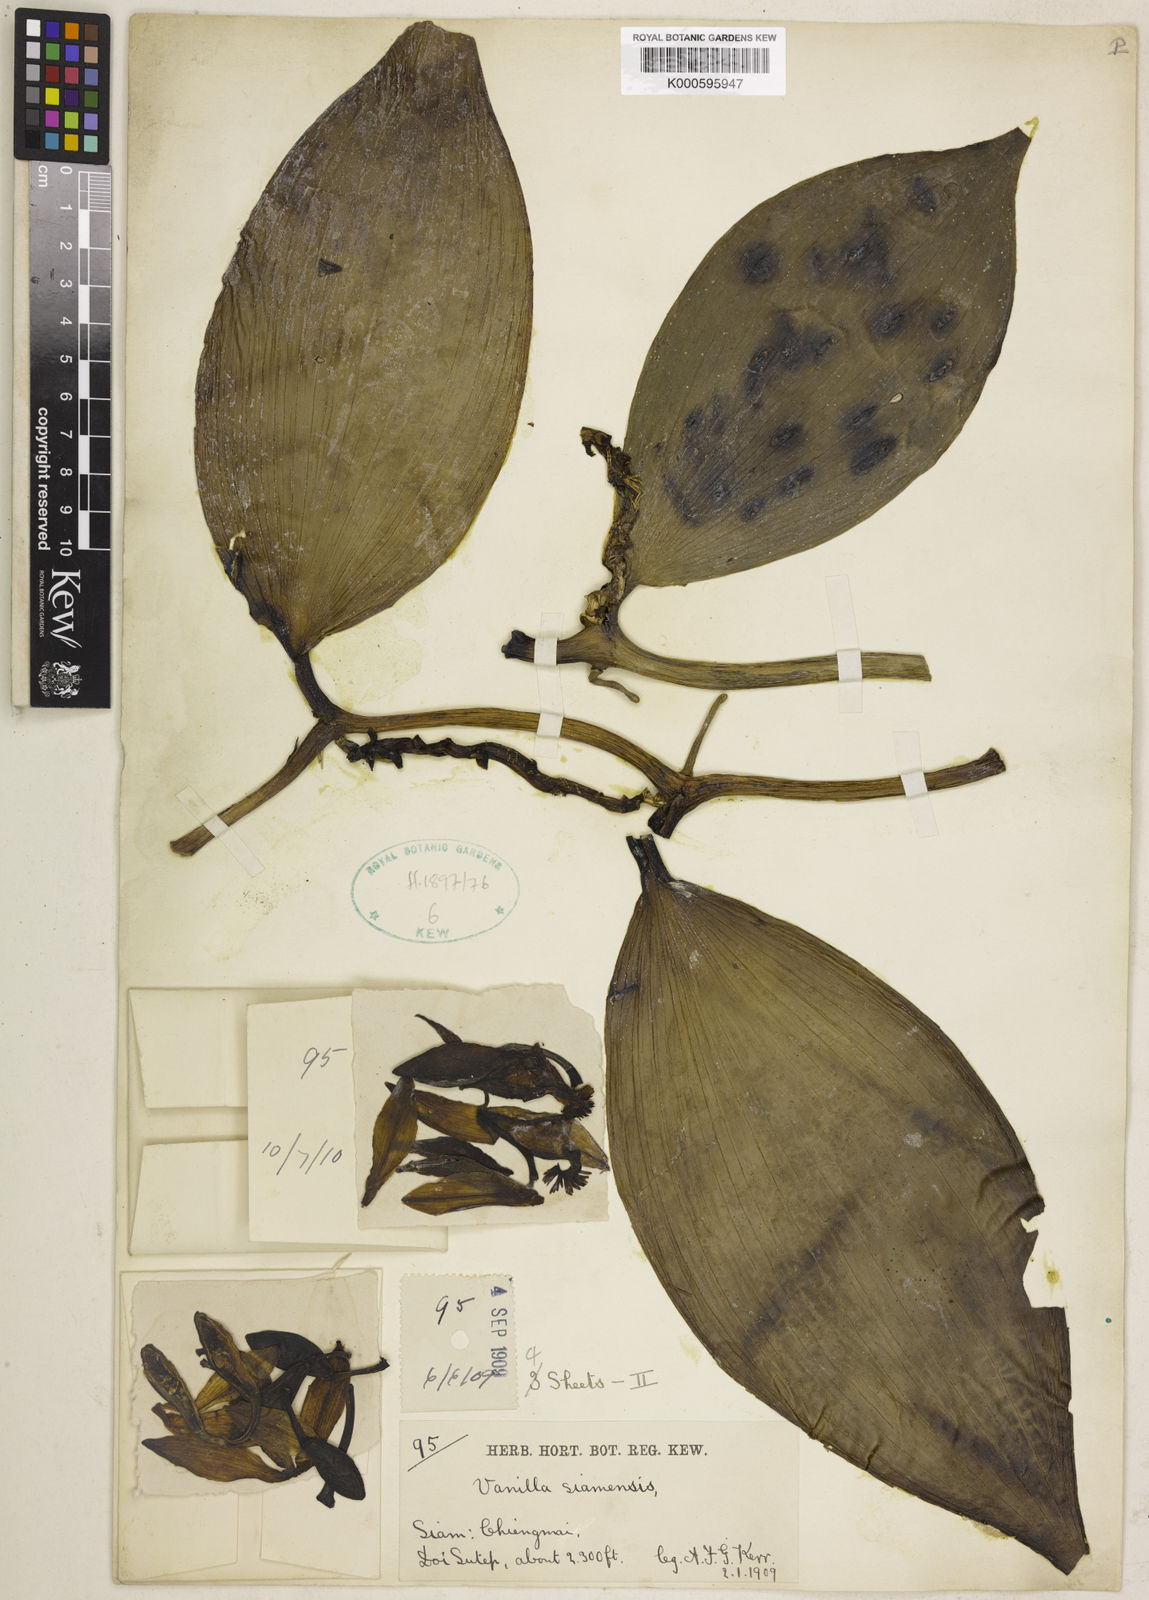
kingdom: Plantae
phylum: Tracheophyta
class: Liliopsida
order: Asparagales
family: Orchidaceae
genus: Vanilla
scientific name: Vanilla siamensis
